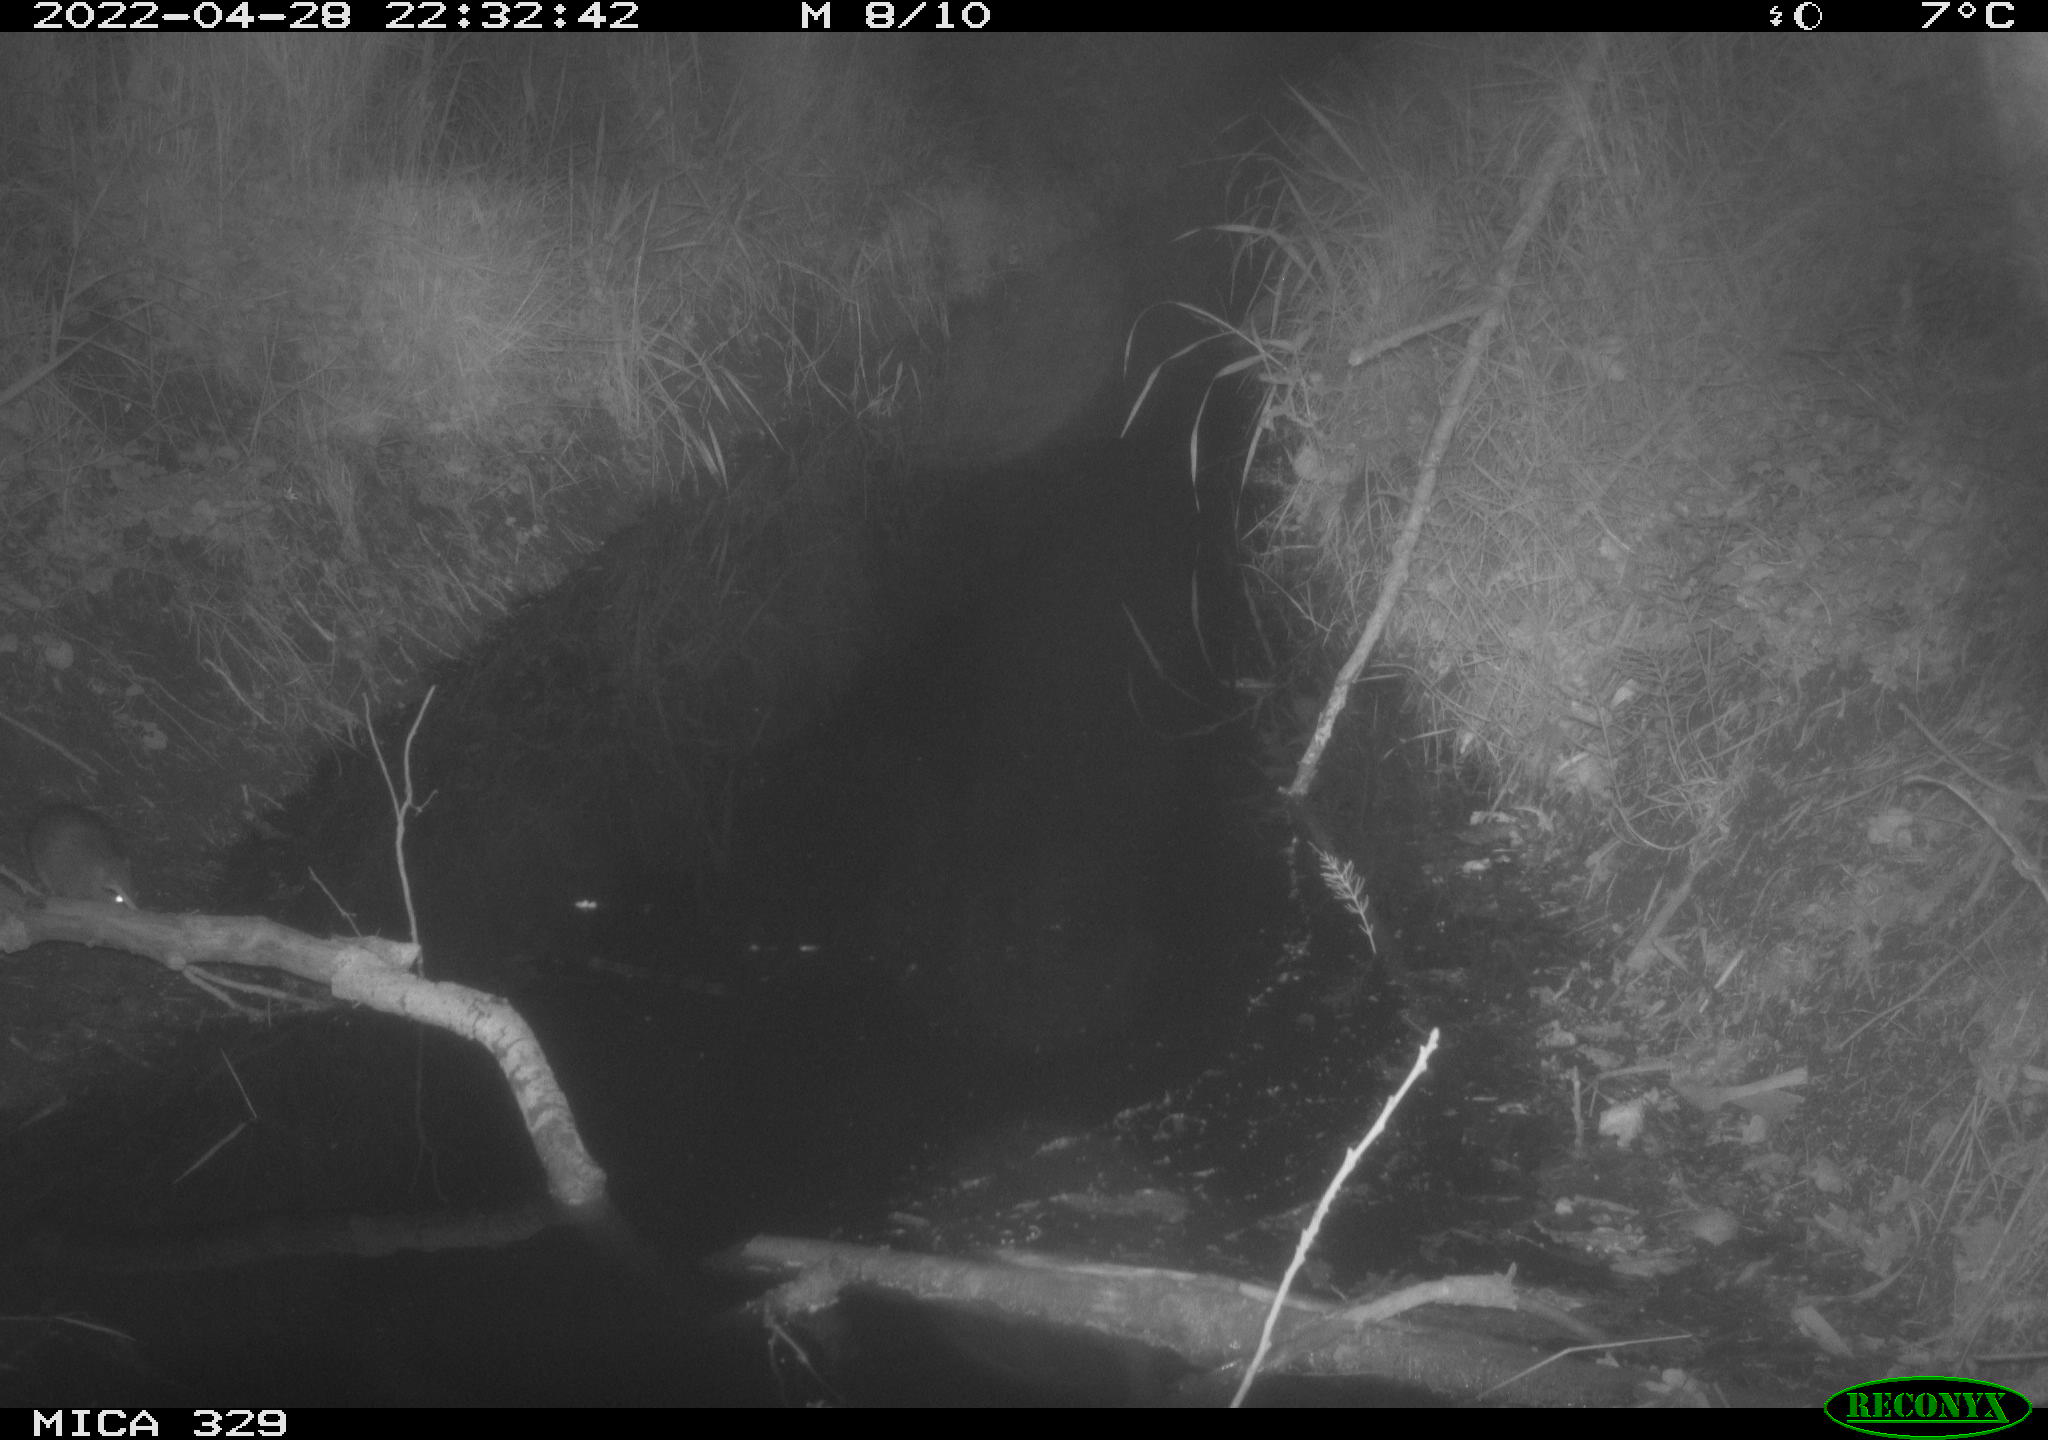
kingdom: Animalia
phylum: Chordata
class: Mammalia
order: Rodentia
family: Muridae
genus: Rattus
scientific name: Rattus norvegicus
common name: Brown rat
